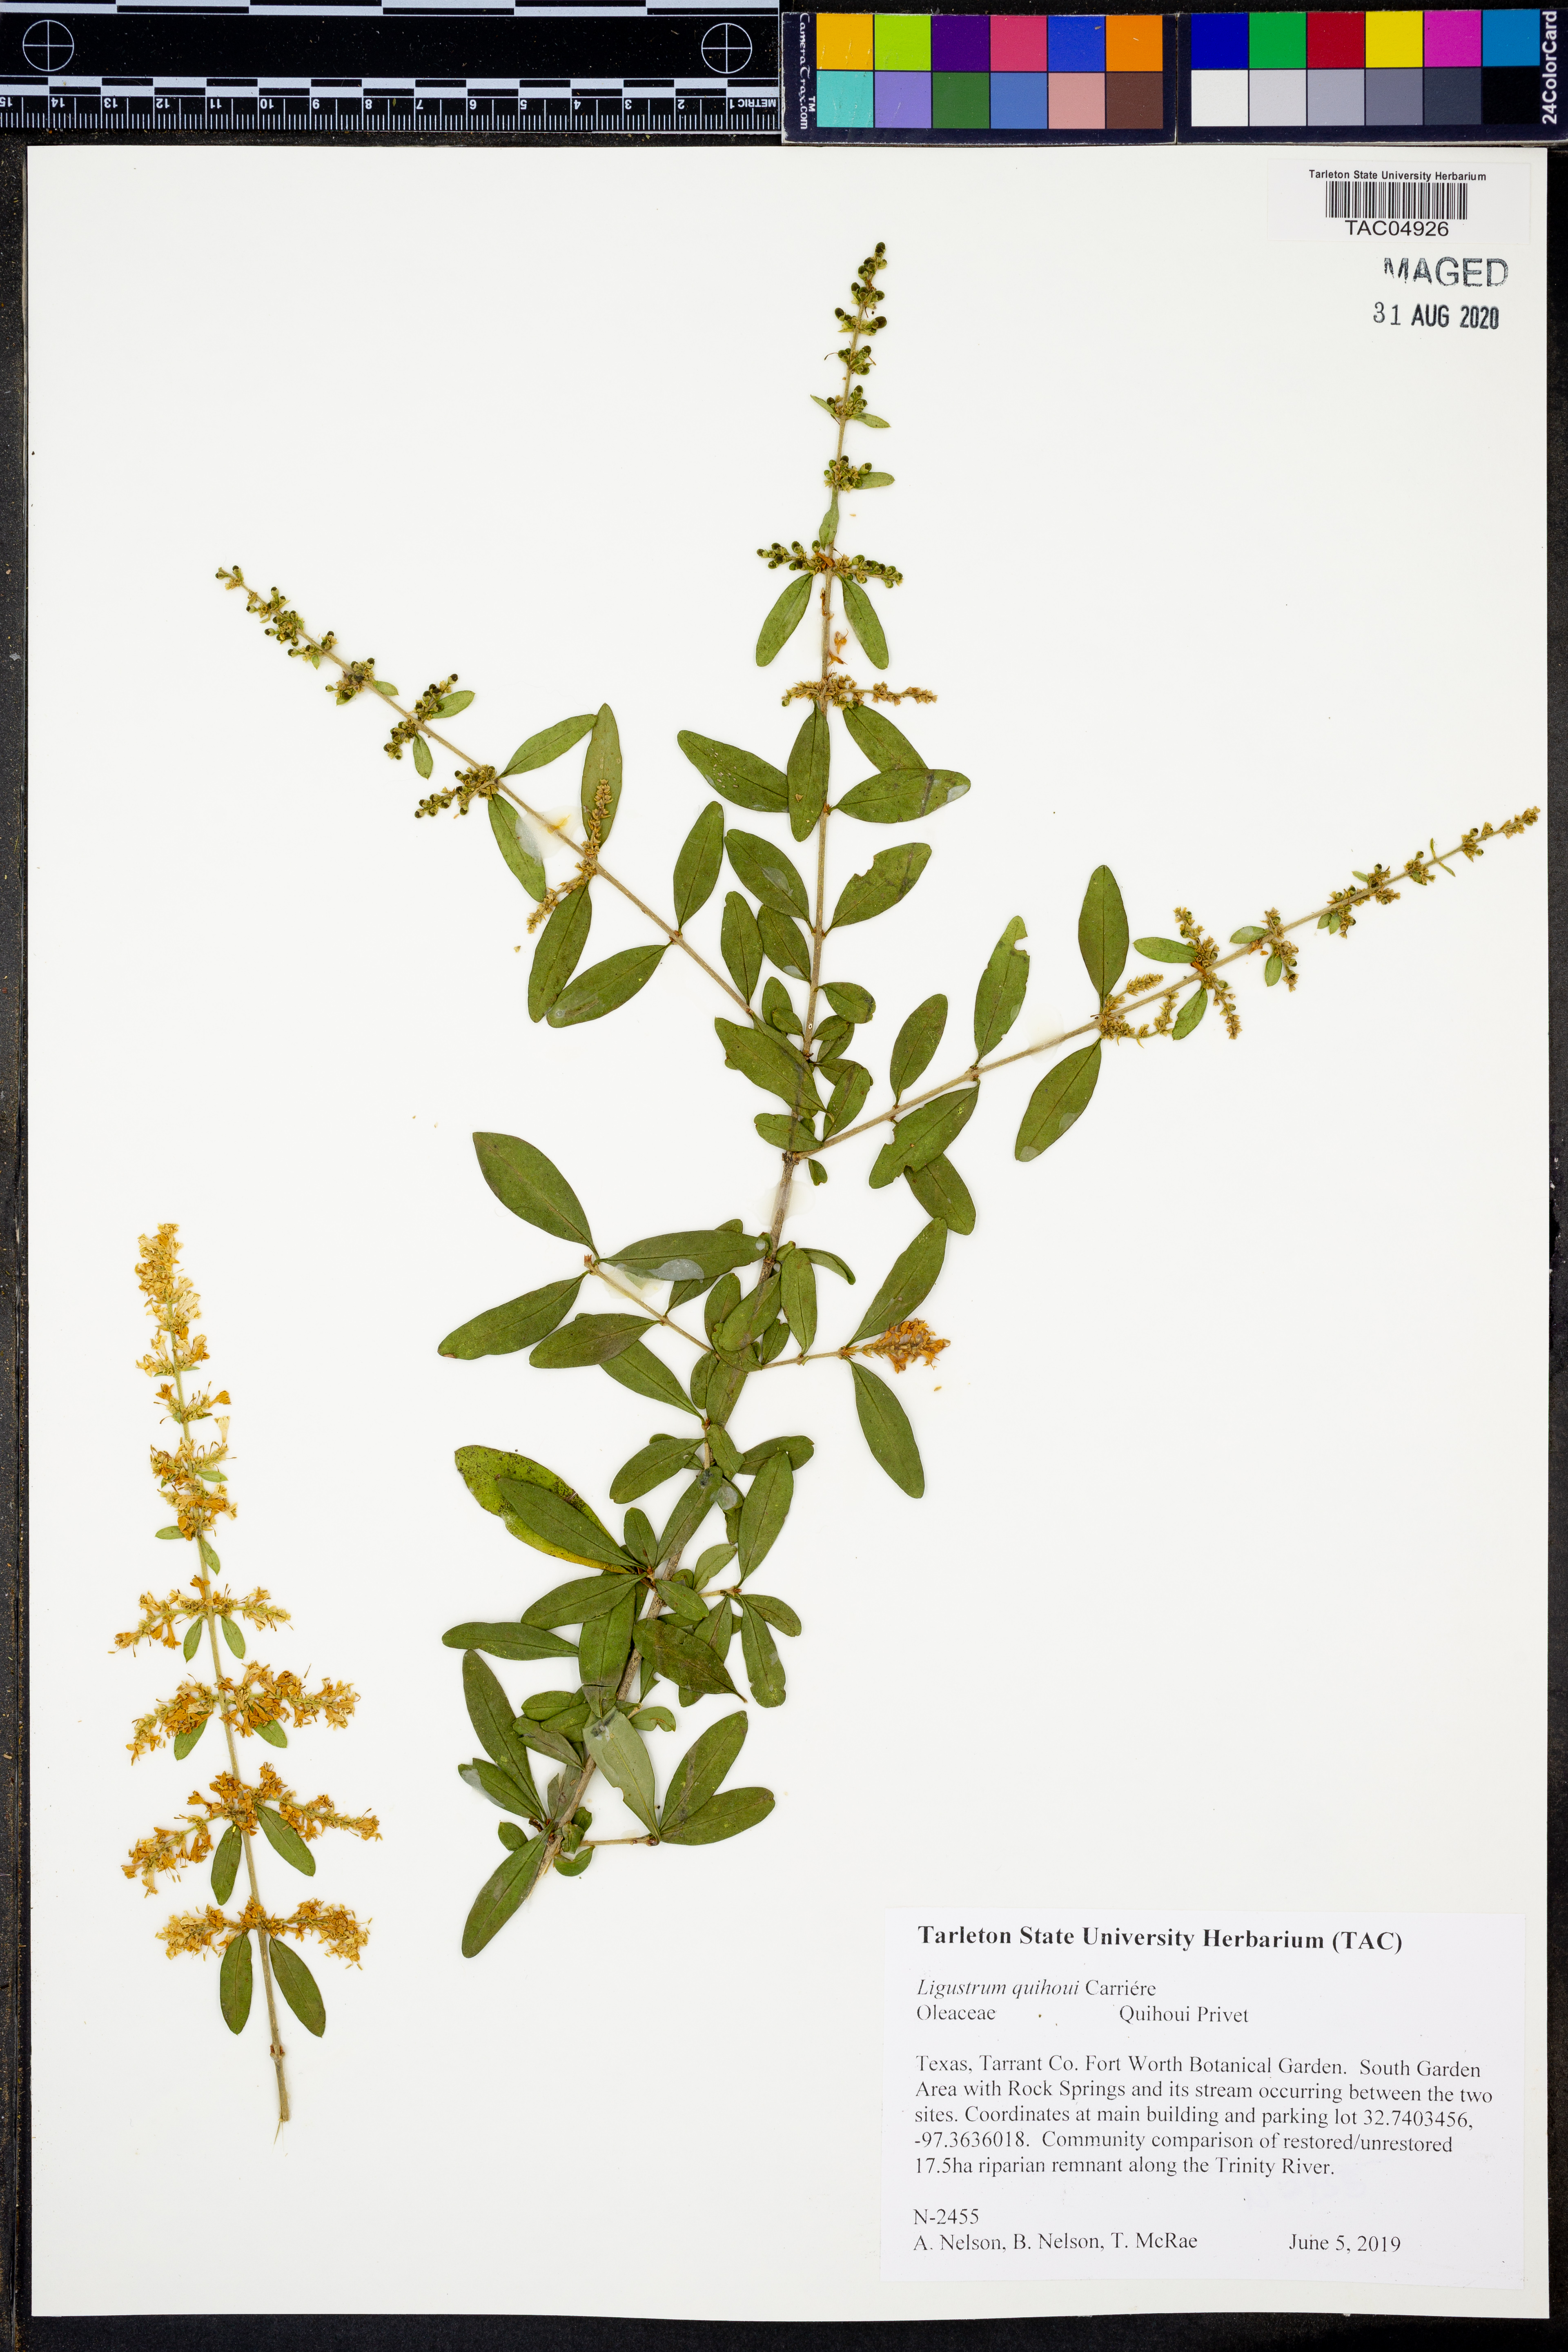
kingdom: Plantae
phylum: Tracheophyta
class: Magnoliopsida
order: Lamiales
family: Oleaceae
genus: Ligustrum
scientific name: Ligustrum quihoui
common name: Waxyleaf privet
